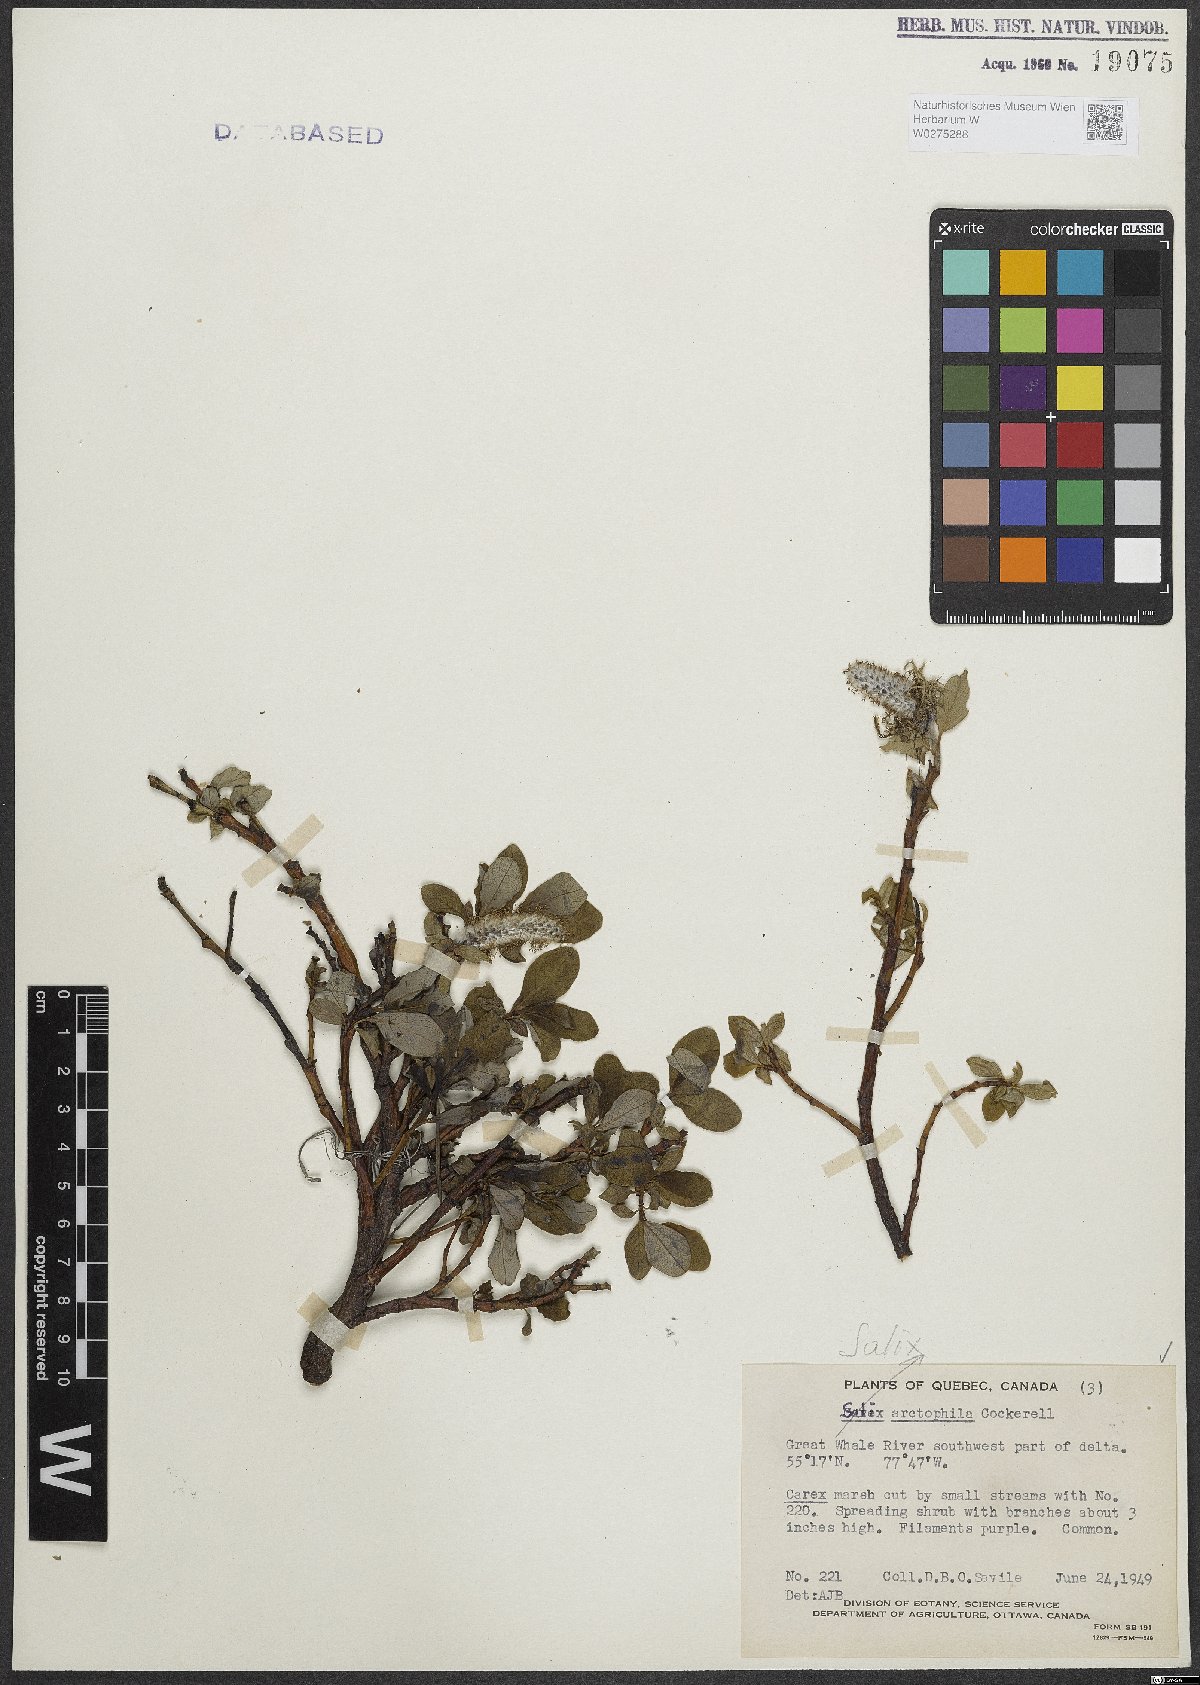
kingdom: Plantae
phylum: Tracheophyta
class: Magnoliopsida
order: Malpighiales
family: Salicaceae
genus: Salix
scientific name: Salix arctophila
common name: Greenland willow
